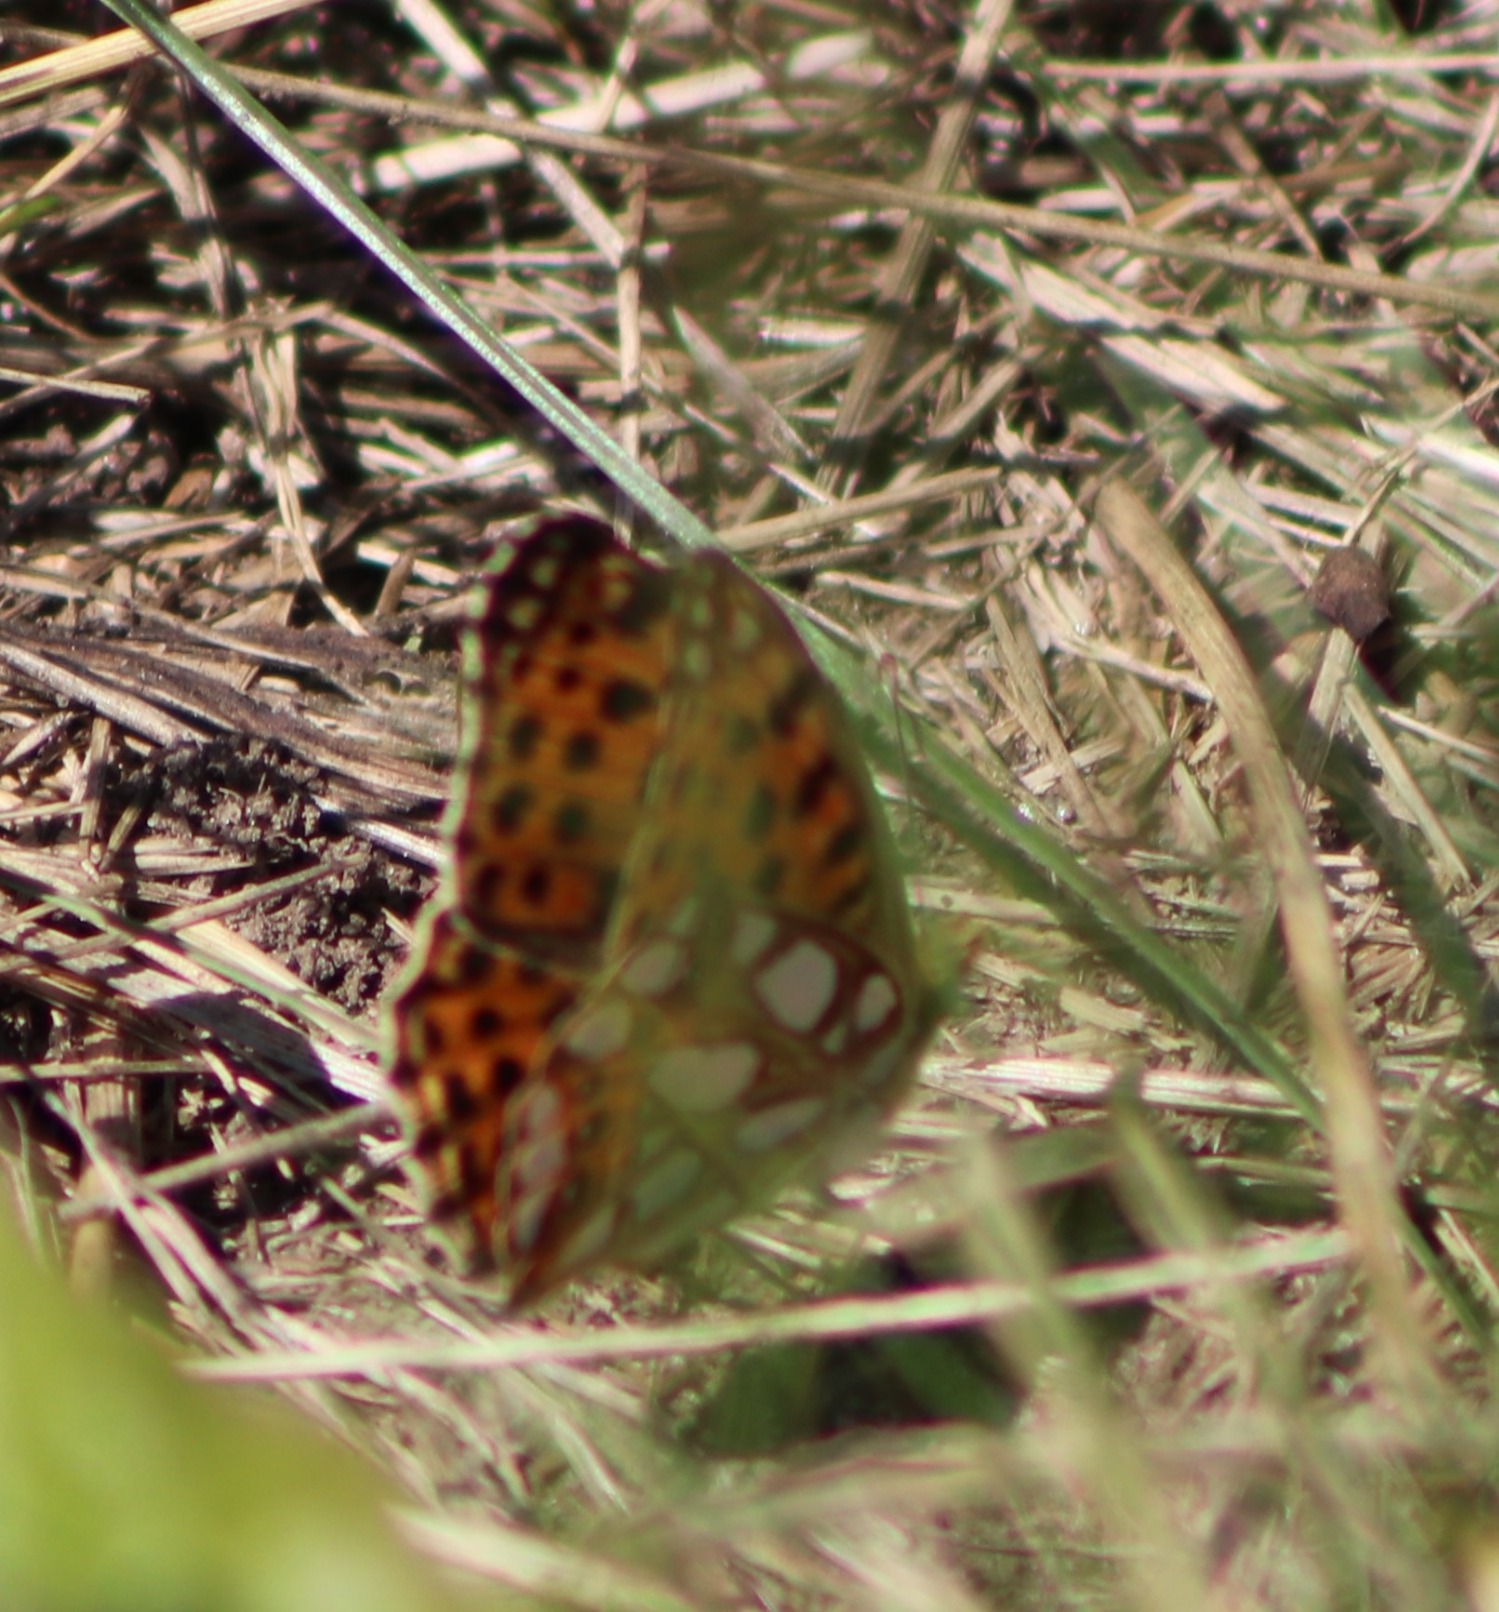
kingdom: Animalia
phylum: Arthropoda
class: Insecta
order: Lepidoptera
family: Nymphalidae
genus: Issoria
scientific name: Issoria lathonia
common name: Storplettet perlemorsommerfugl
